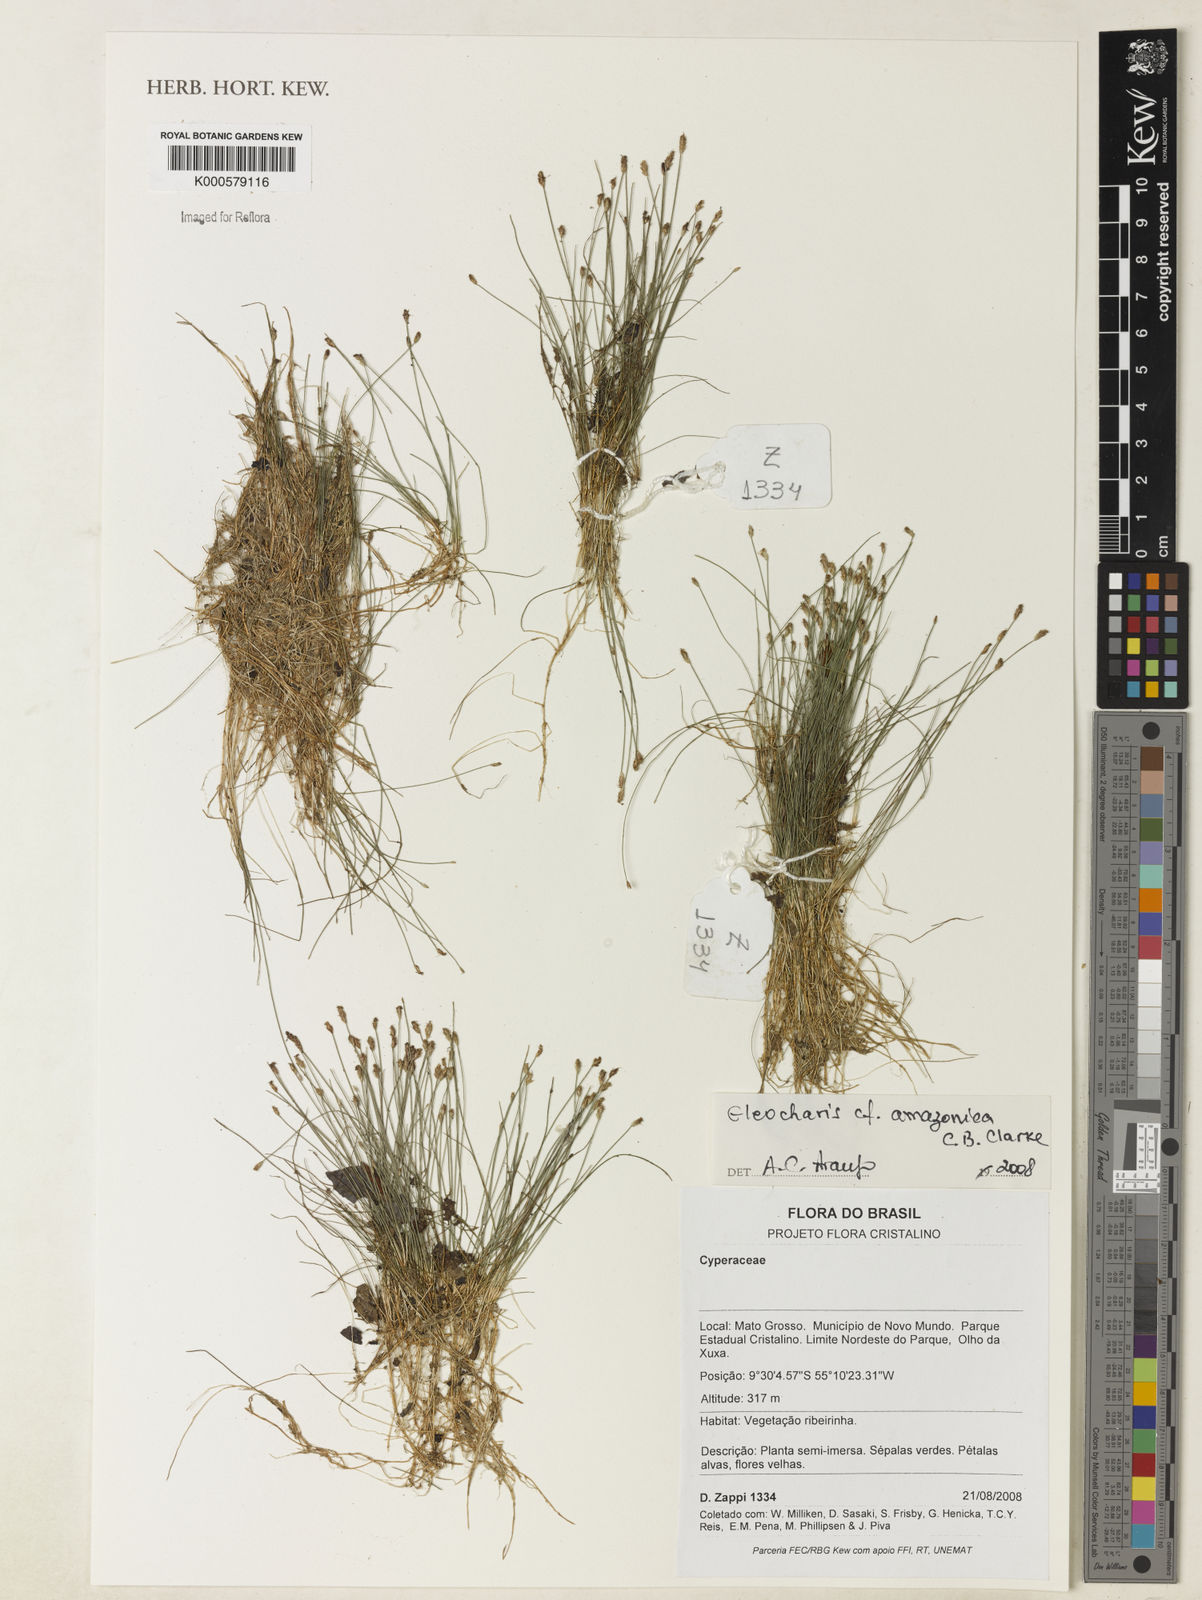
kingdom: Plantae
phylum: Tracheophyta
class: Liliopsida
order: Poales
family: Cyperaceae
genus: Eleocharis
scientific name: Eleocharis amazonica
